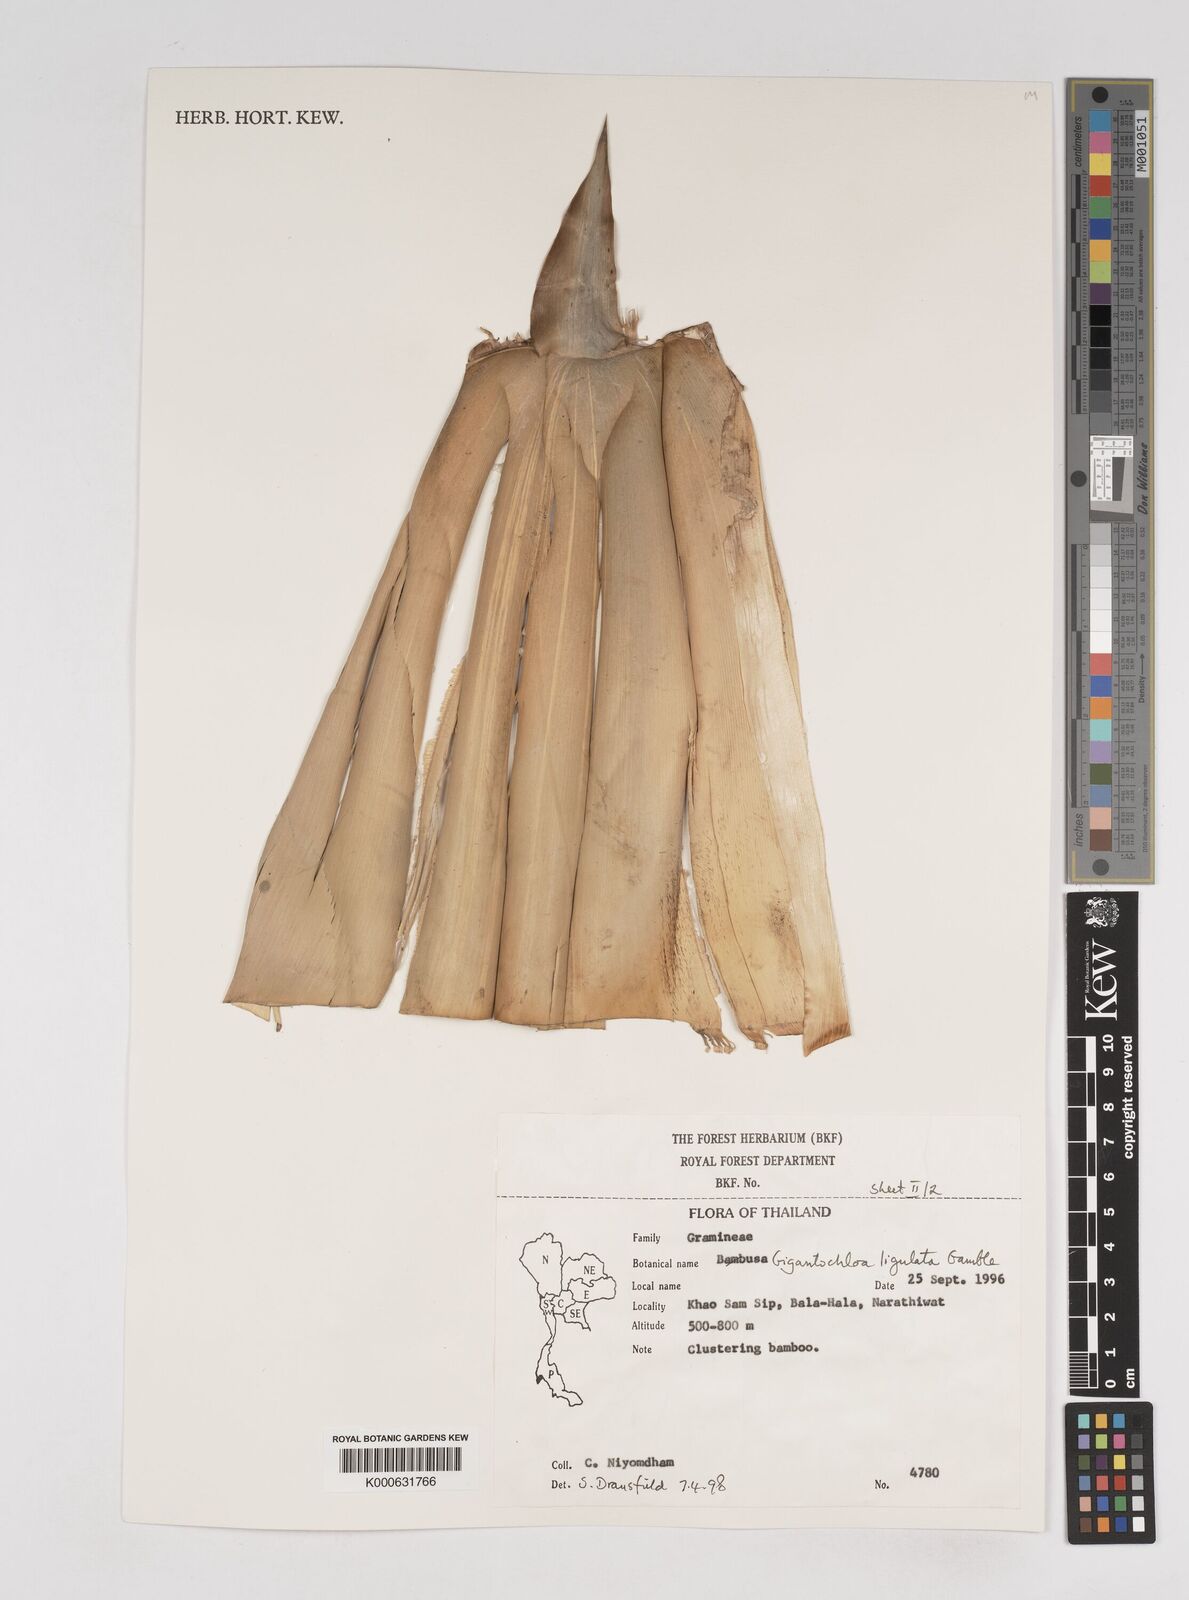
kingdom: Plantae
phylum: Tracheophyta
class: Liliopsida
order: Poales
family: Poaceae
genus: Gigantochloa
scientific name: Gigantochloa ligulata
